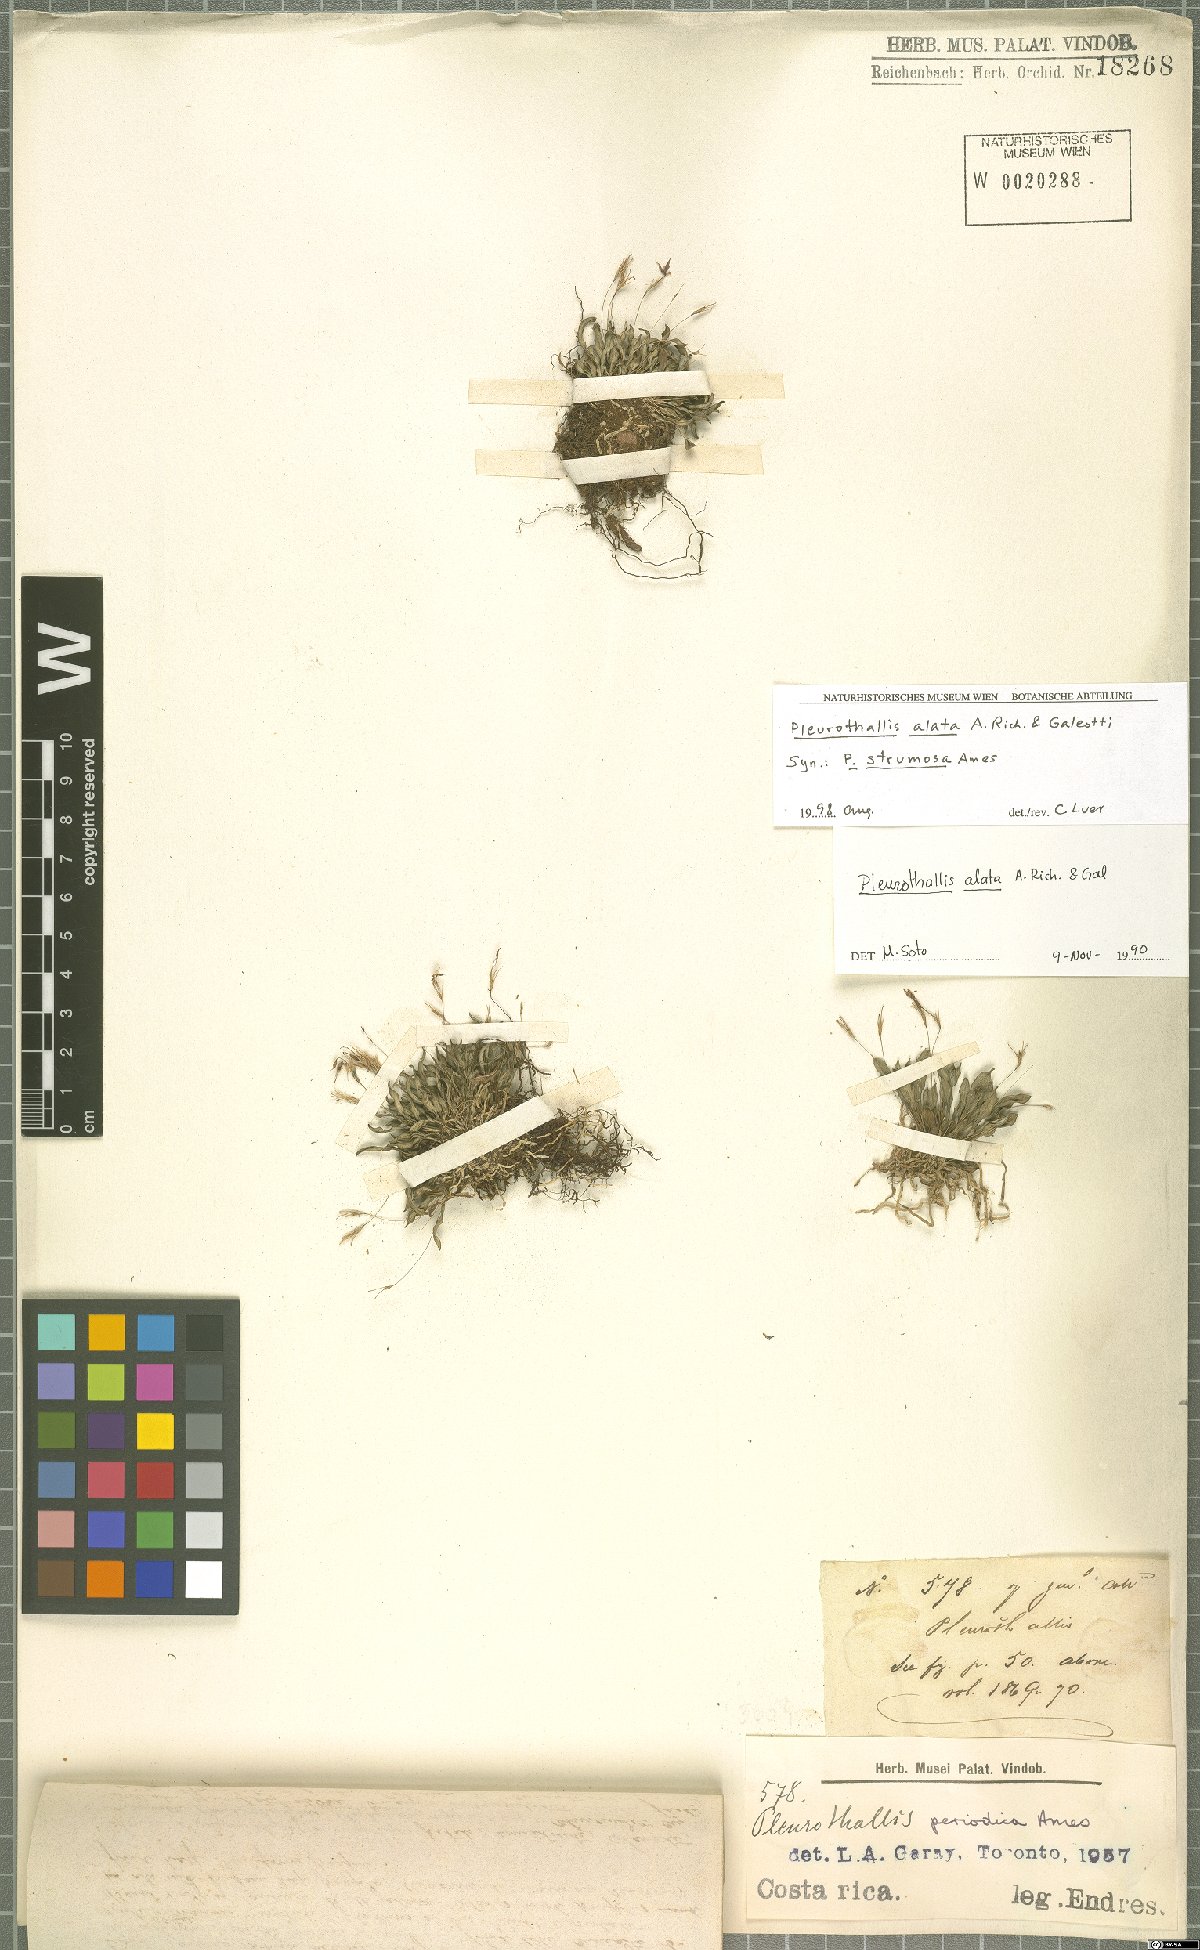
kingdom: Plantae
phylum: Tracheophyta
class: Liliopsida
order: Asparagales
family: Orchidaceae
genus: Muscarella
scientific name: Muscarella marginata
